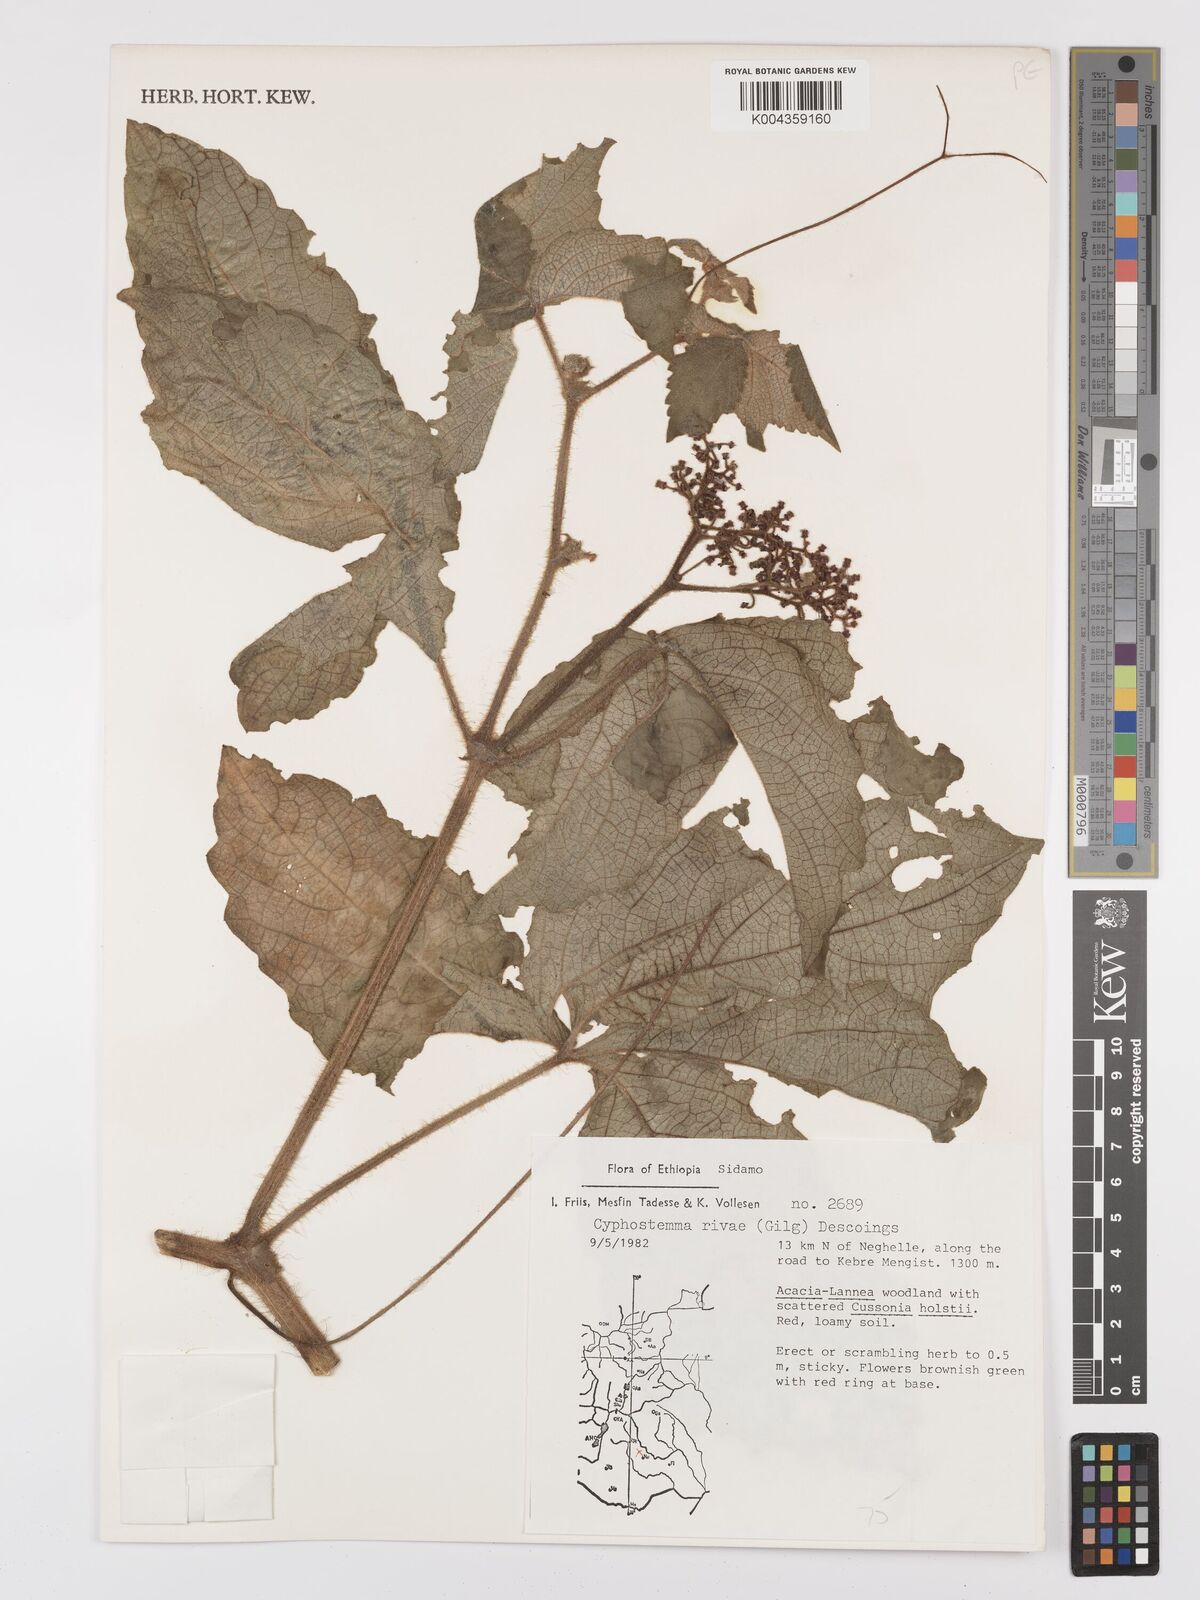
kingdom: Plantae
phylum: Tracheophyta
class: Magnoliopsida
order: Vitales
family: Vitaceae
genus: Cyphostemma
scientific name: Cyphostemma rivae
